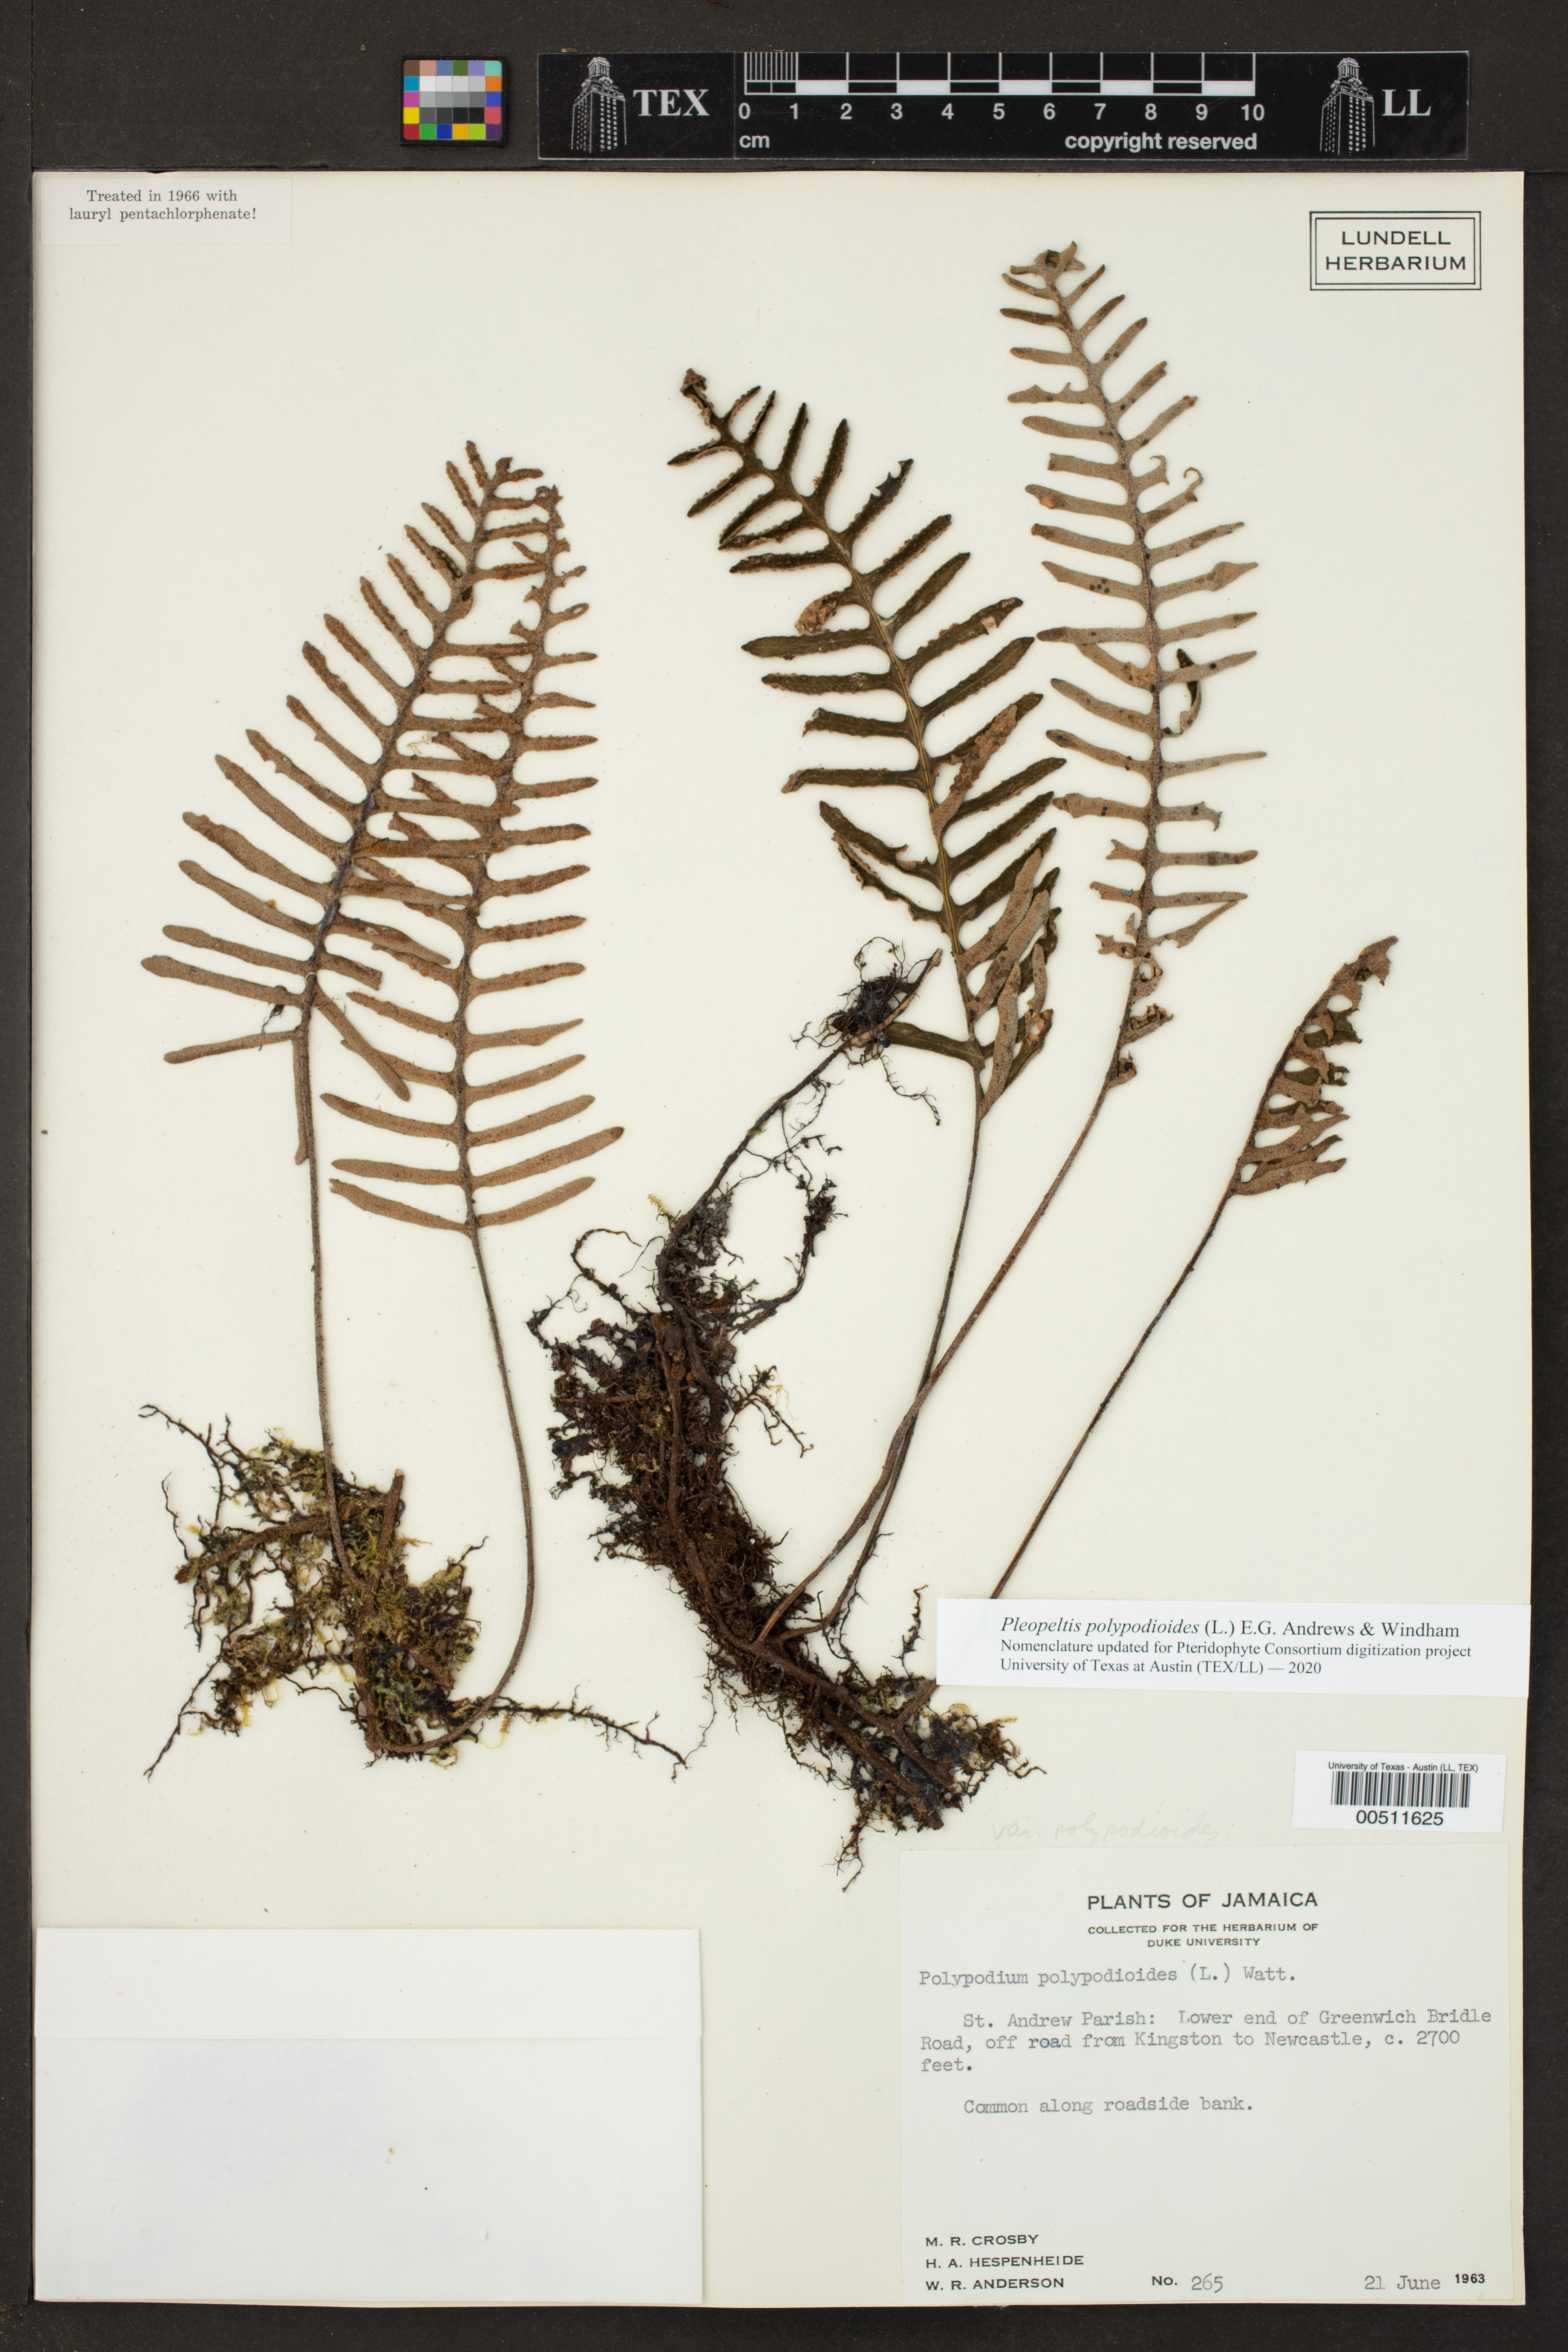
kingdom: Plantae
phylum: Tracheophyta
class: Polypodiopsida
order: Polypodiales
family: Polypodiaceae
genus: Pleopeltis
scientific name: Pleopeltis polypodioides
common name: Resurrection fern
